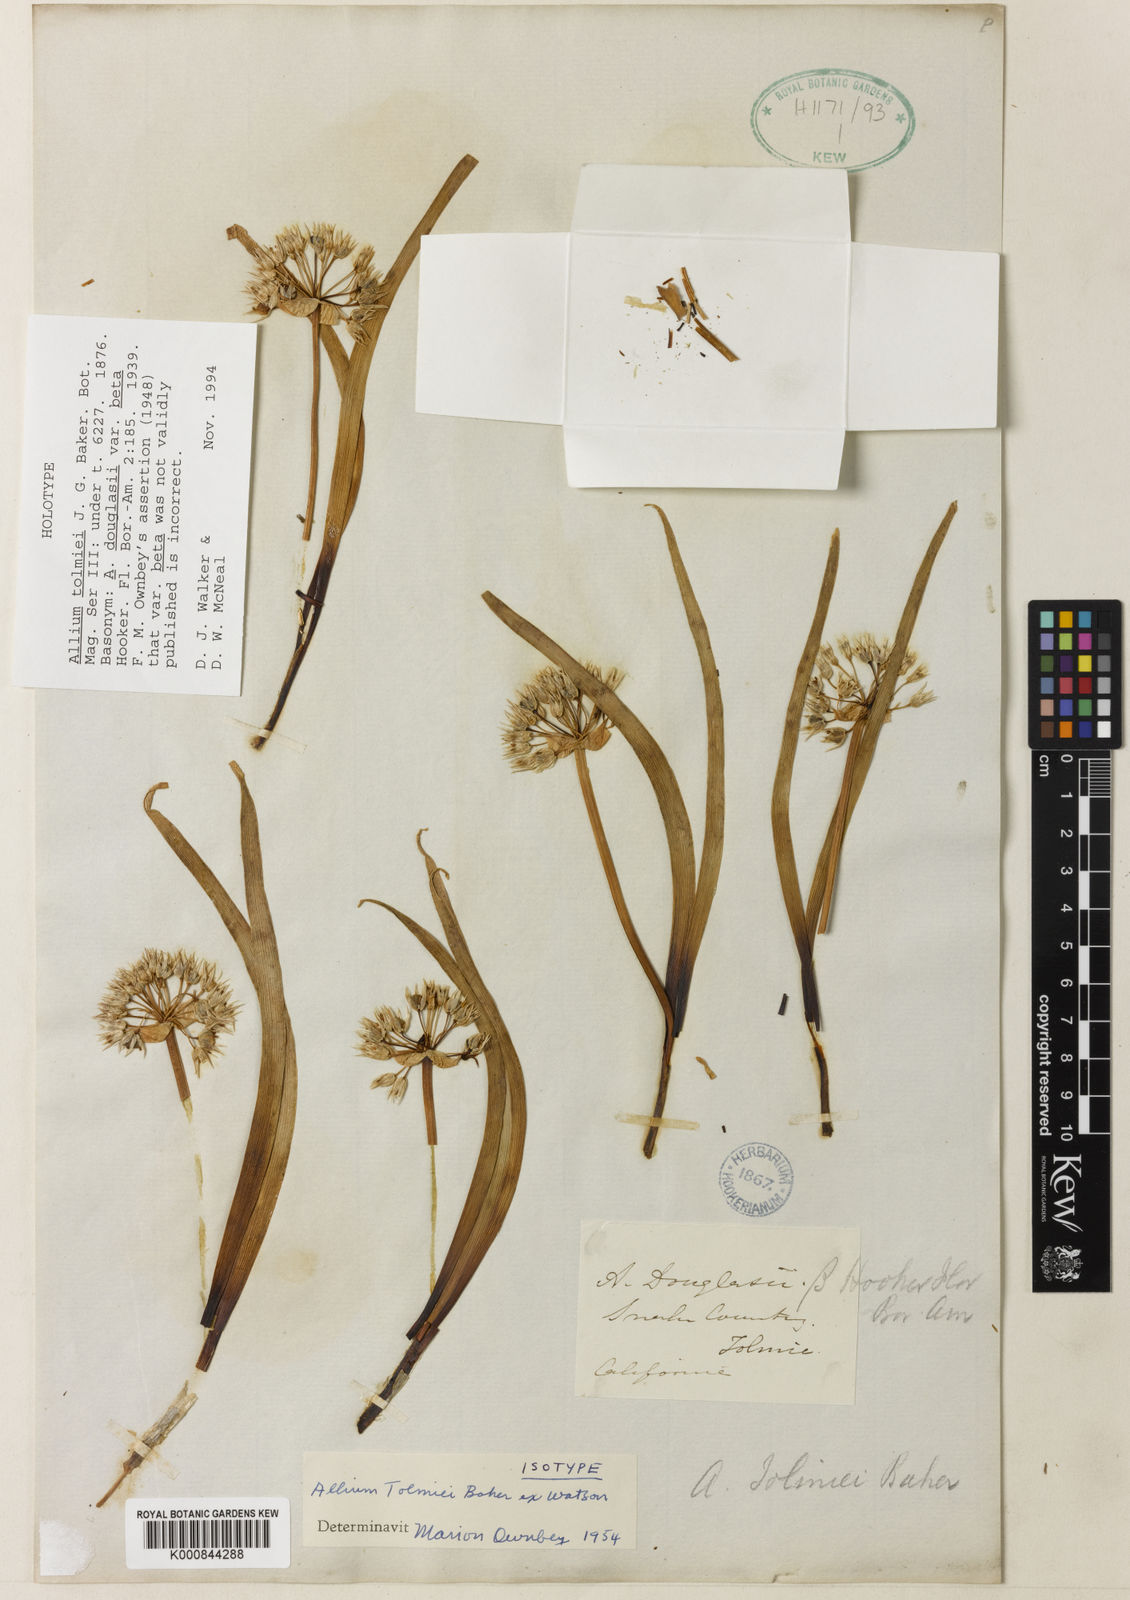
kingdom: Plantae
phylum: Tracheophyta
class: Liliopsida
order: Asparagales
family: Amaryllidaceae
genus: Allium
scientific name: Allium
